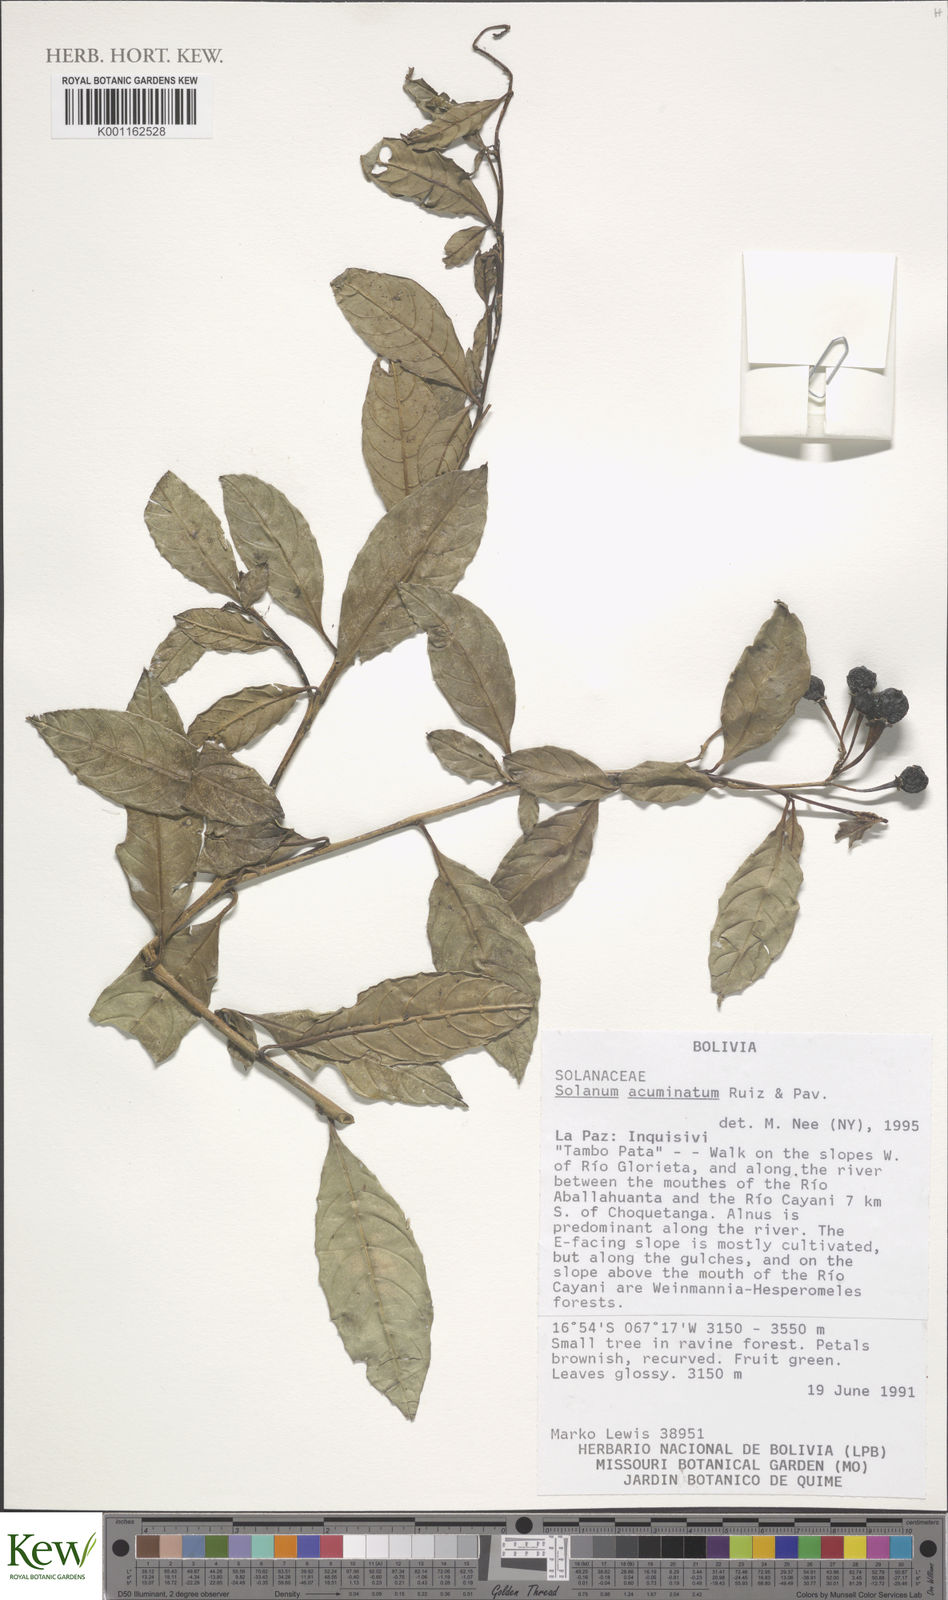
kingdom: Plantae
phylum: Tracheophyta
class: Magnoliopsida
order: Solanales
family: Solanaceae
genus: Solanum
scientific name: Solanum acuminatum
